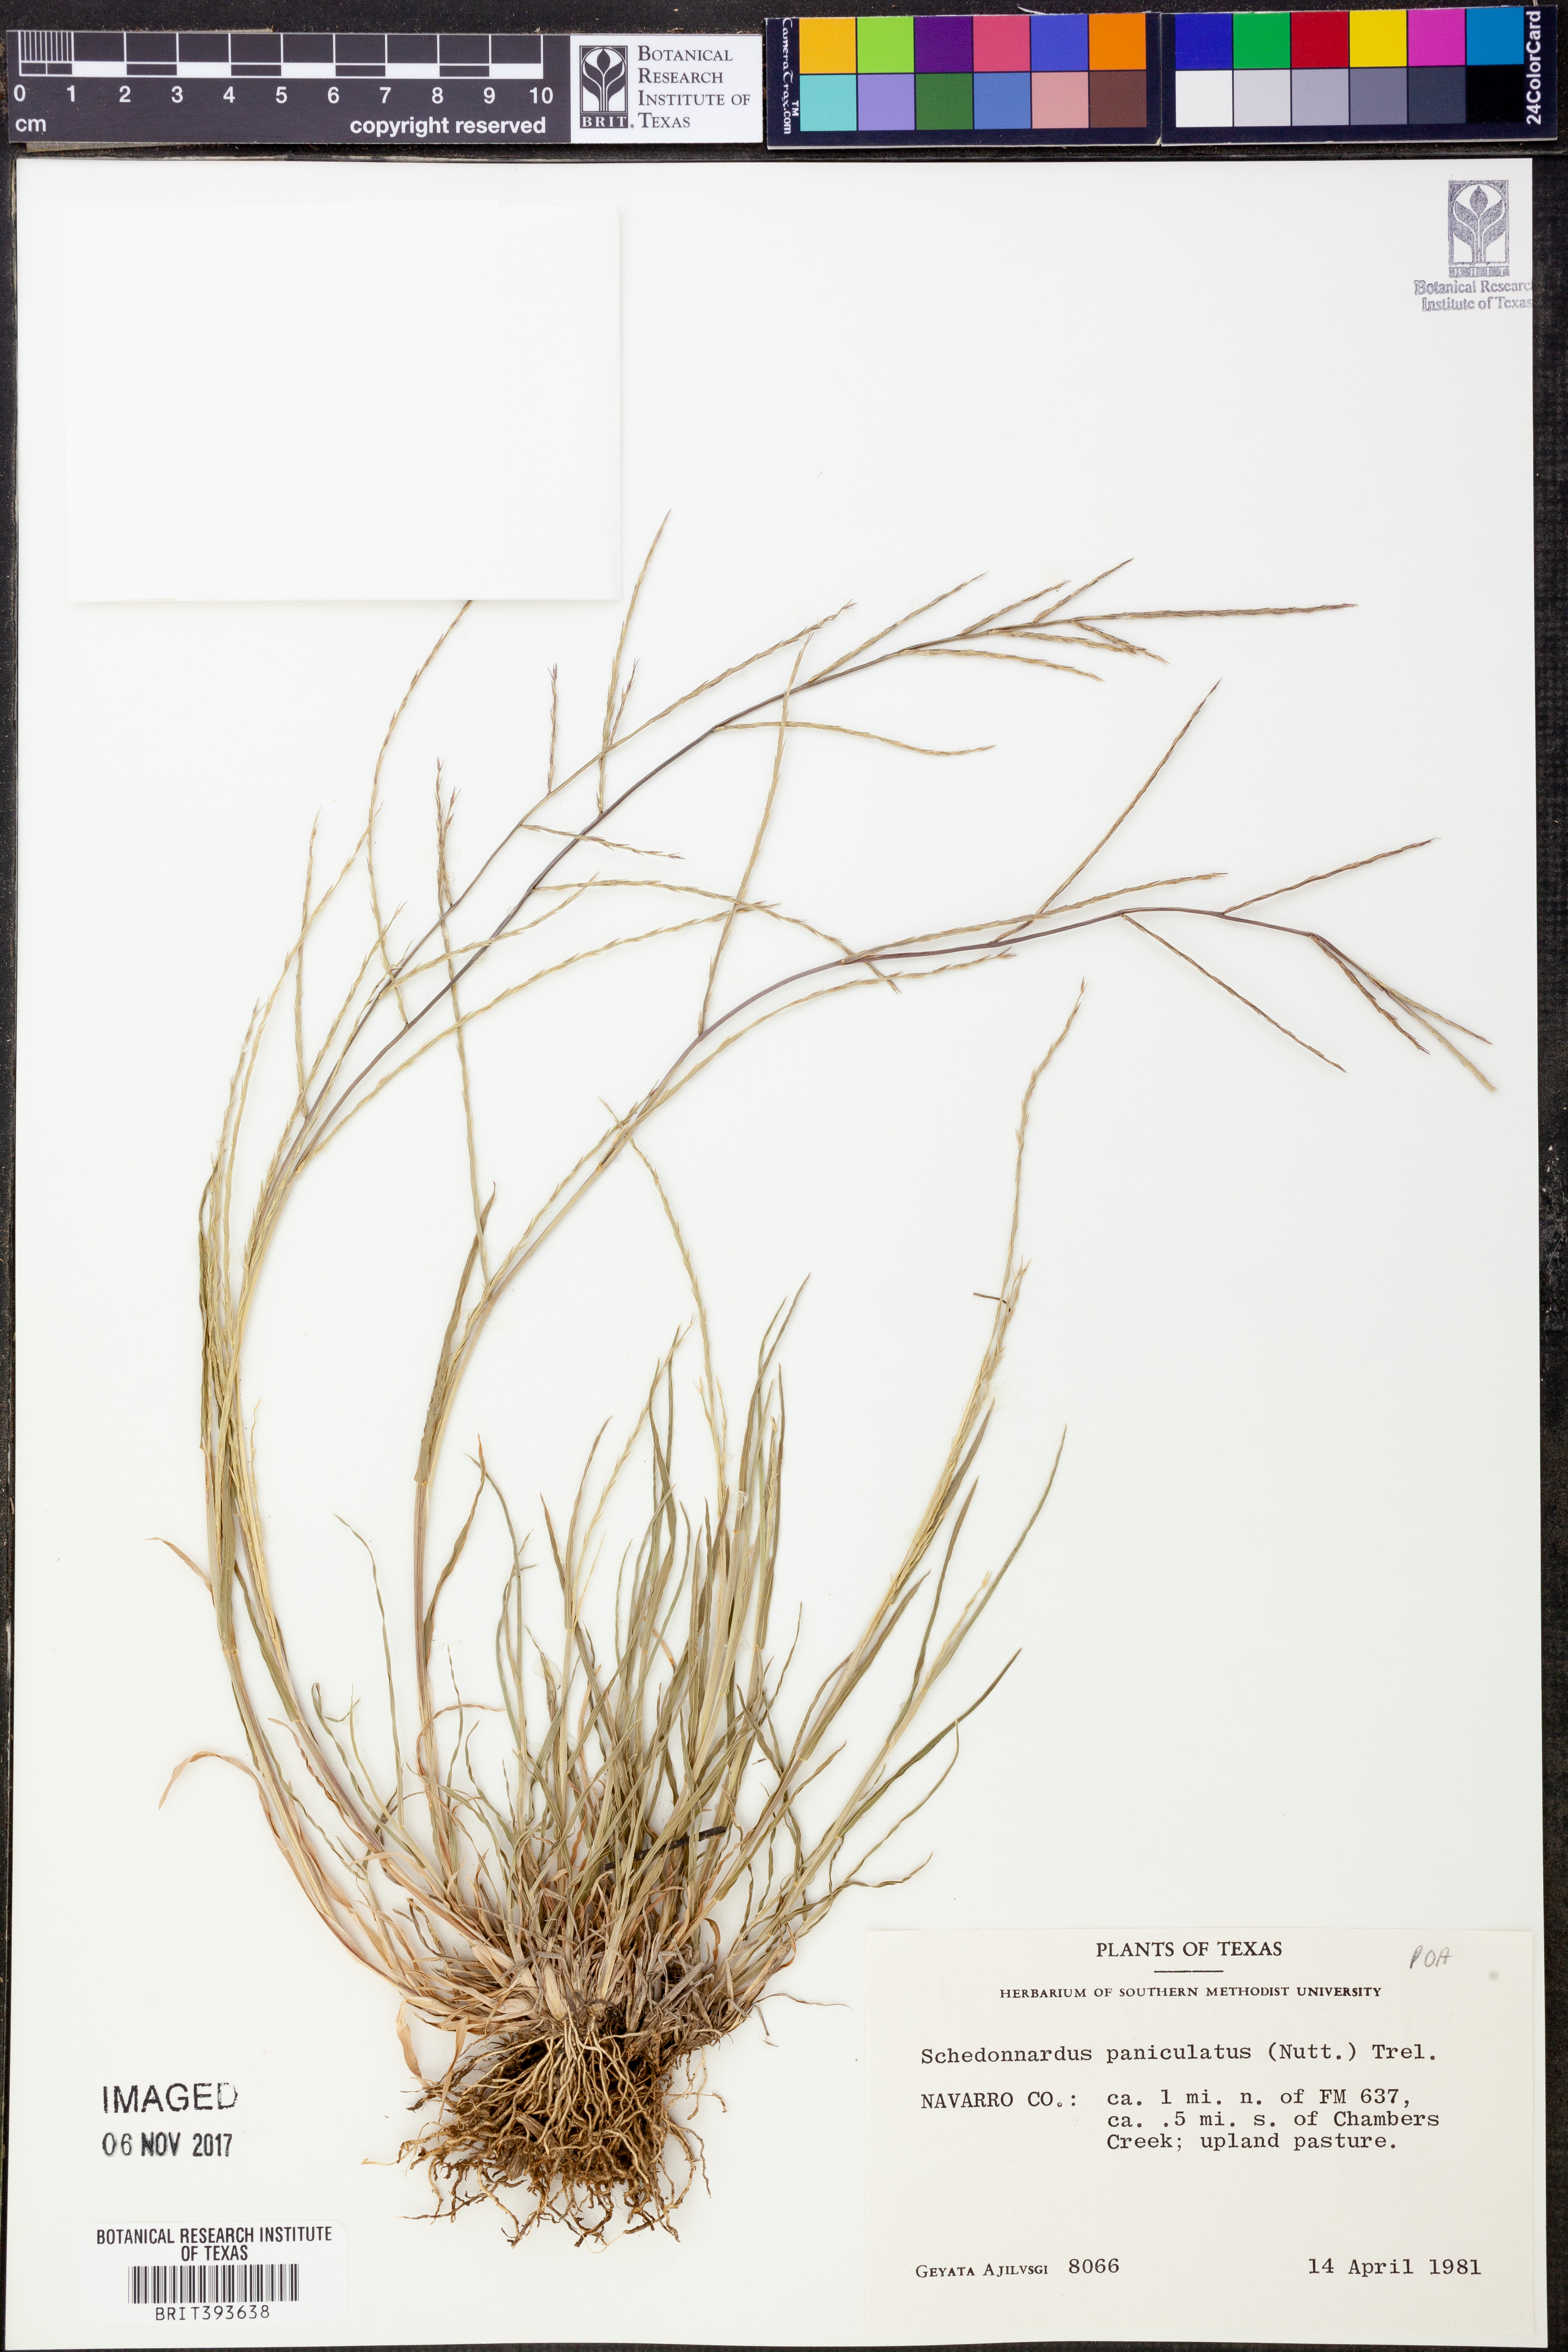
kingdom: Plantae
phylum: Tracheophyta
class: Liliopsida
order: Poales
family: Poaceae
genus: Muhlenbergia
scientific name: Muhlenbergia paniculata
